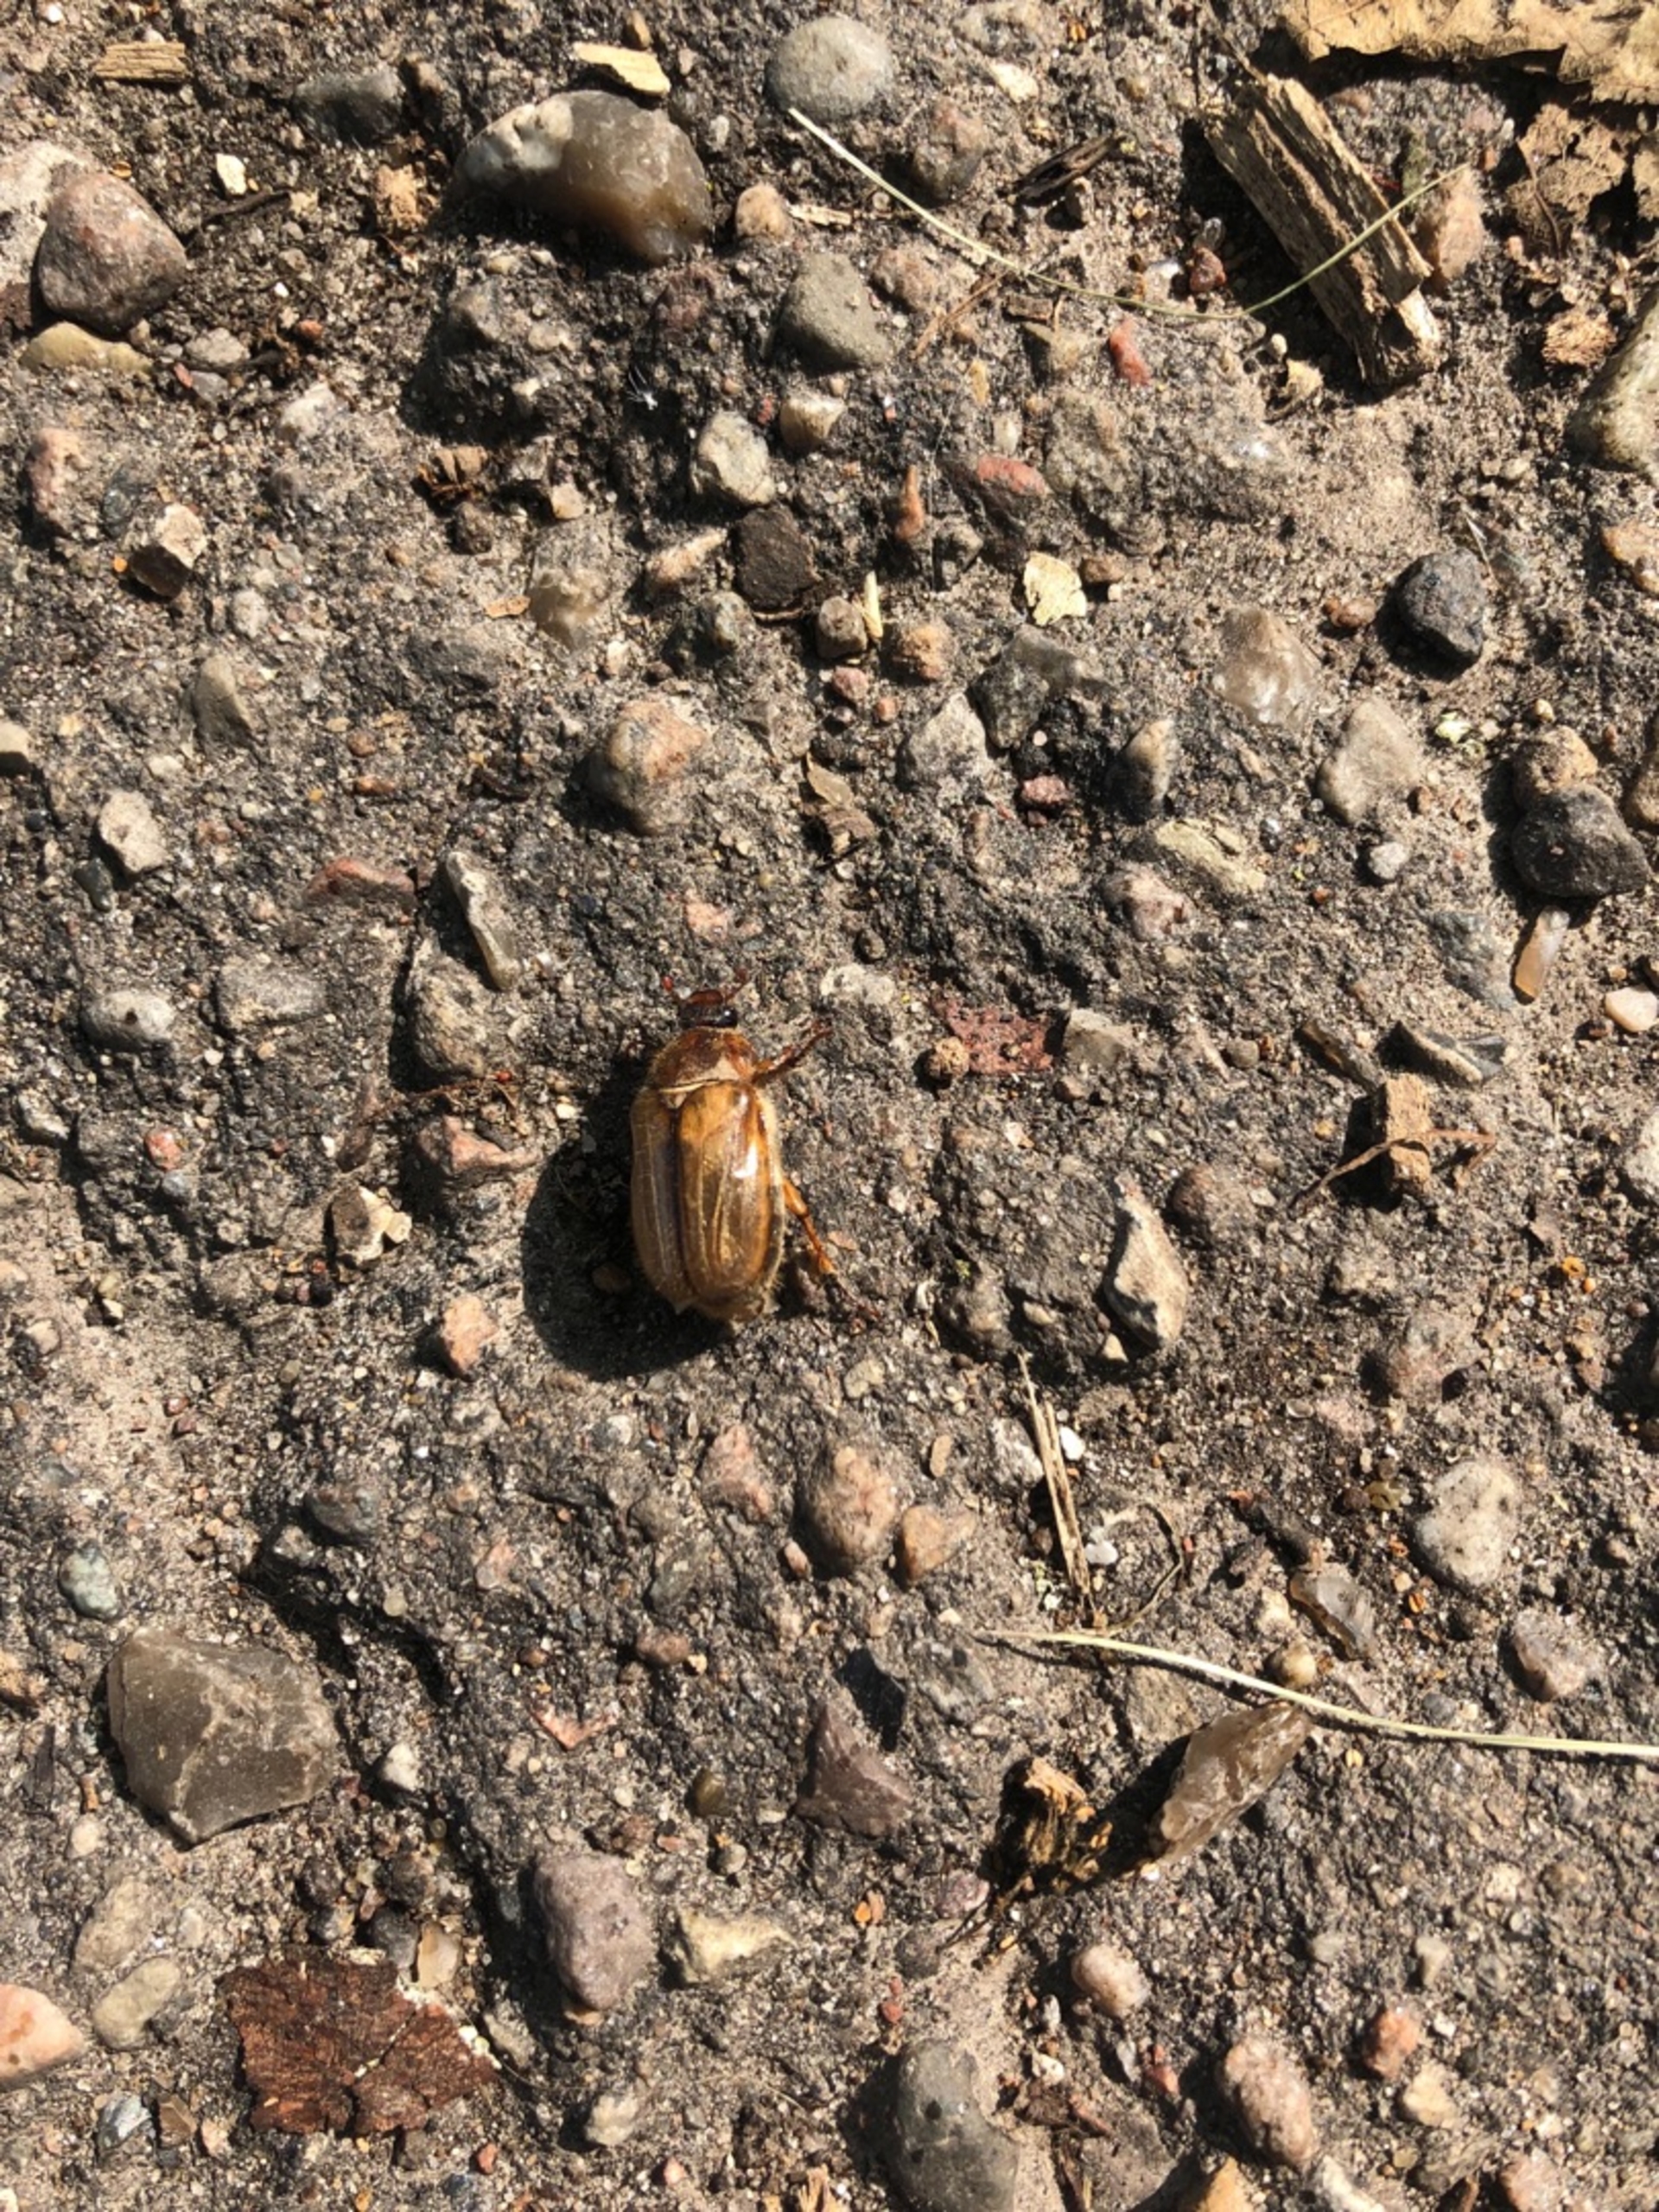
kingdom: Animalia
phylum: Arthropoda
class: Insecta
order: Coleoptera
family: Scarabaeidae
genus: Amphimallon
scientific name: Amphimallon solstitiale
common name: Sankthansoldenborre
